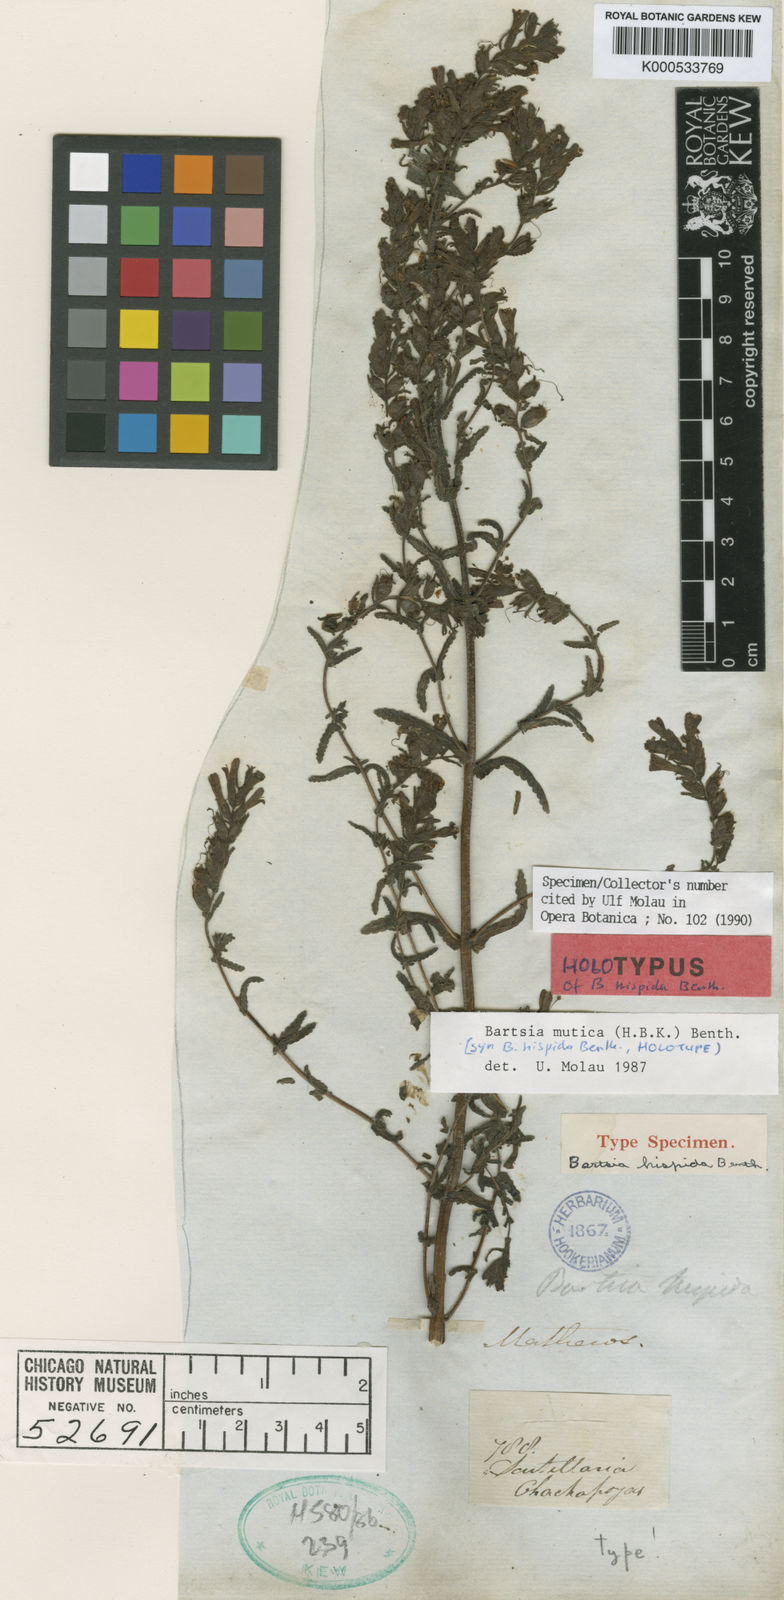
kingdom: Plantae
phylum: Tracheophyta
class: Magnoliopsida
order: Lamiales
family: Orobanchaceae
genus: Neobartsia
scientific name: Neobartsia mutica
